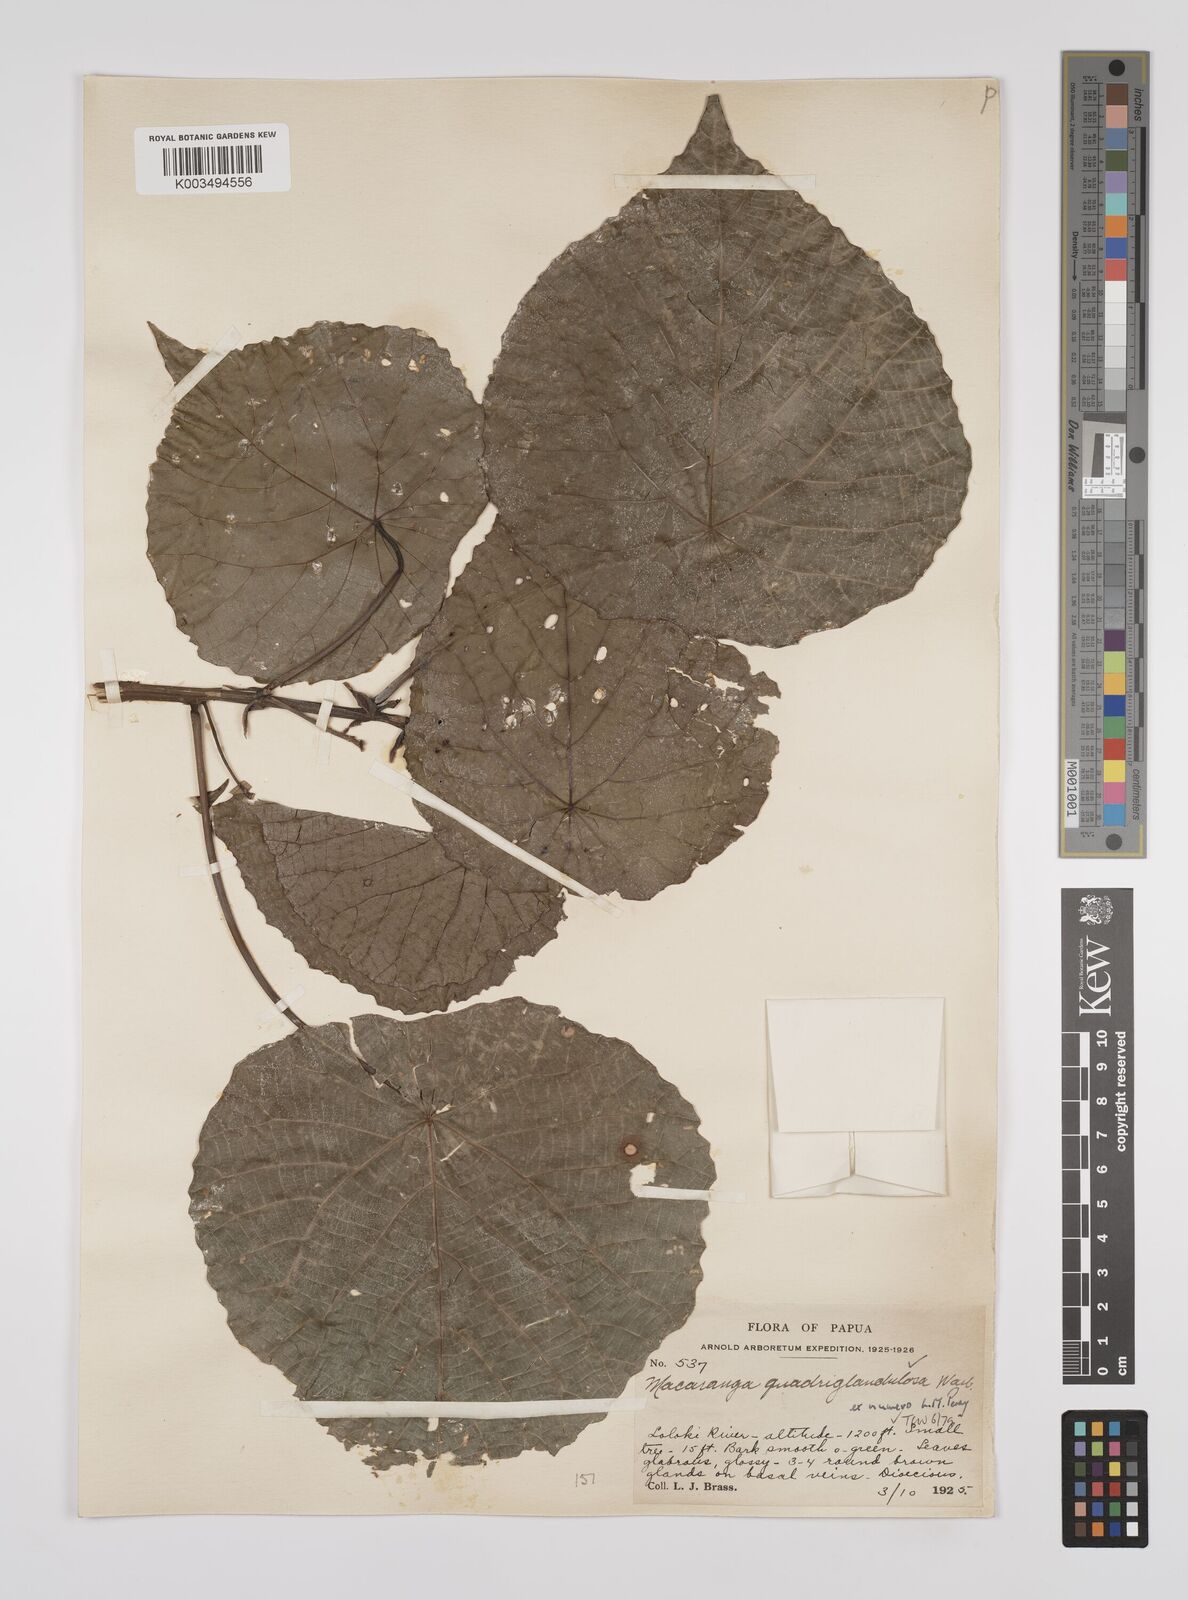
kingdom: Plantae
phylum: Tracheophyta
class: Magnoliopsida
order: Malpighiales
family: Euphorbiaceae
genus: Macaranga
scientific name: Macaranga quadriglandulosa
